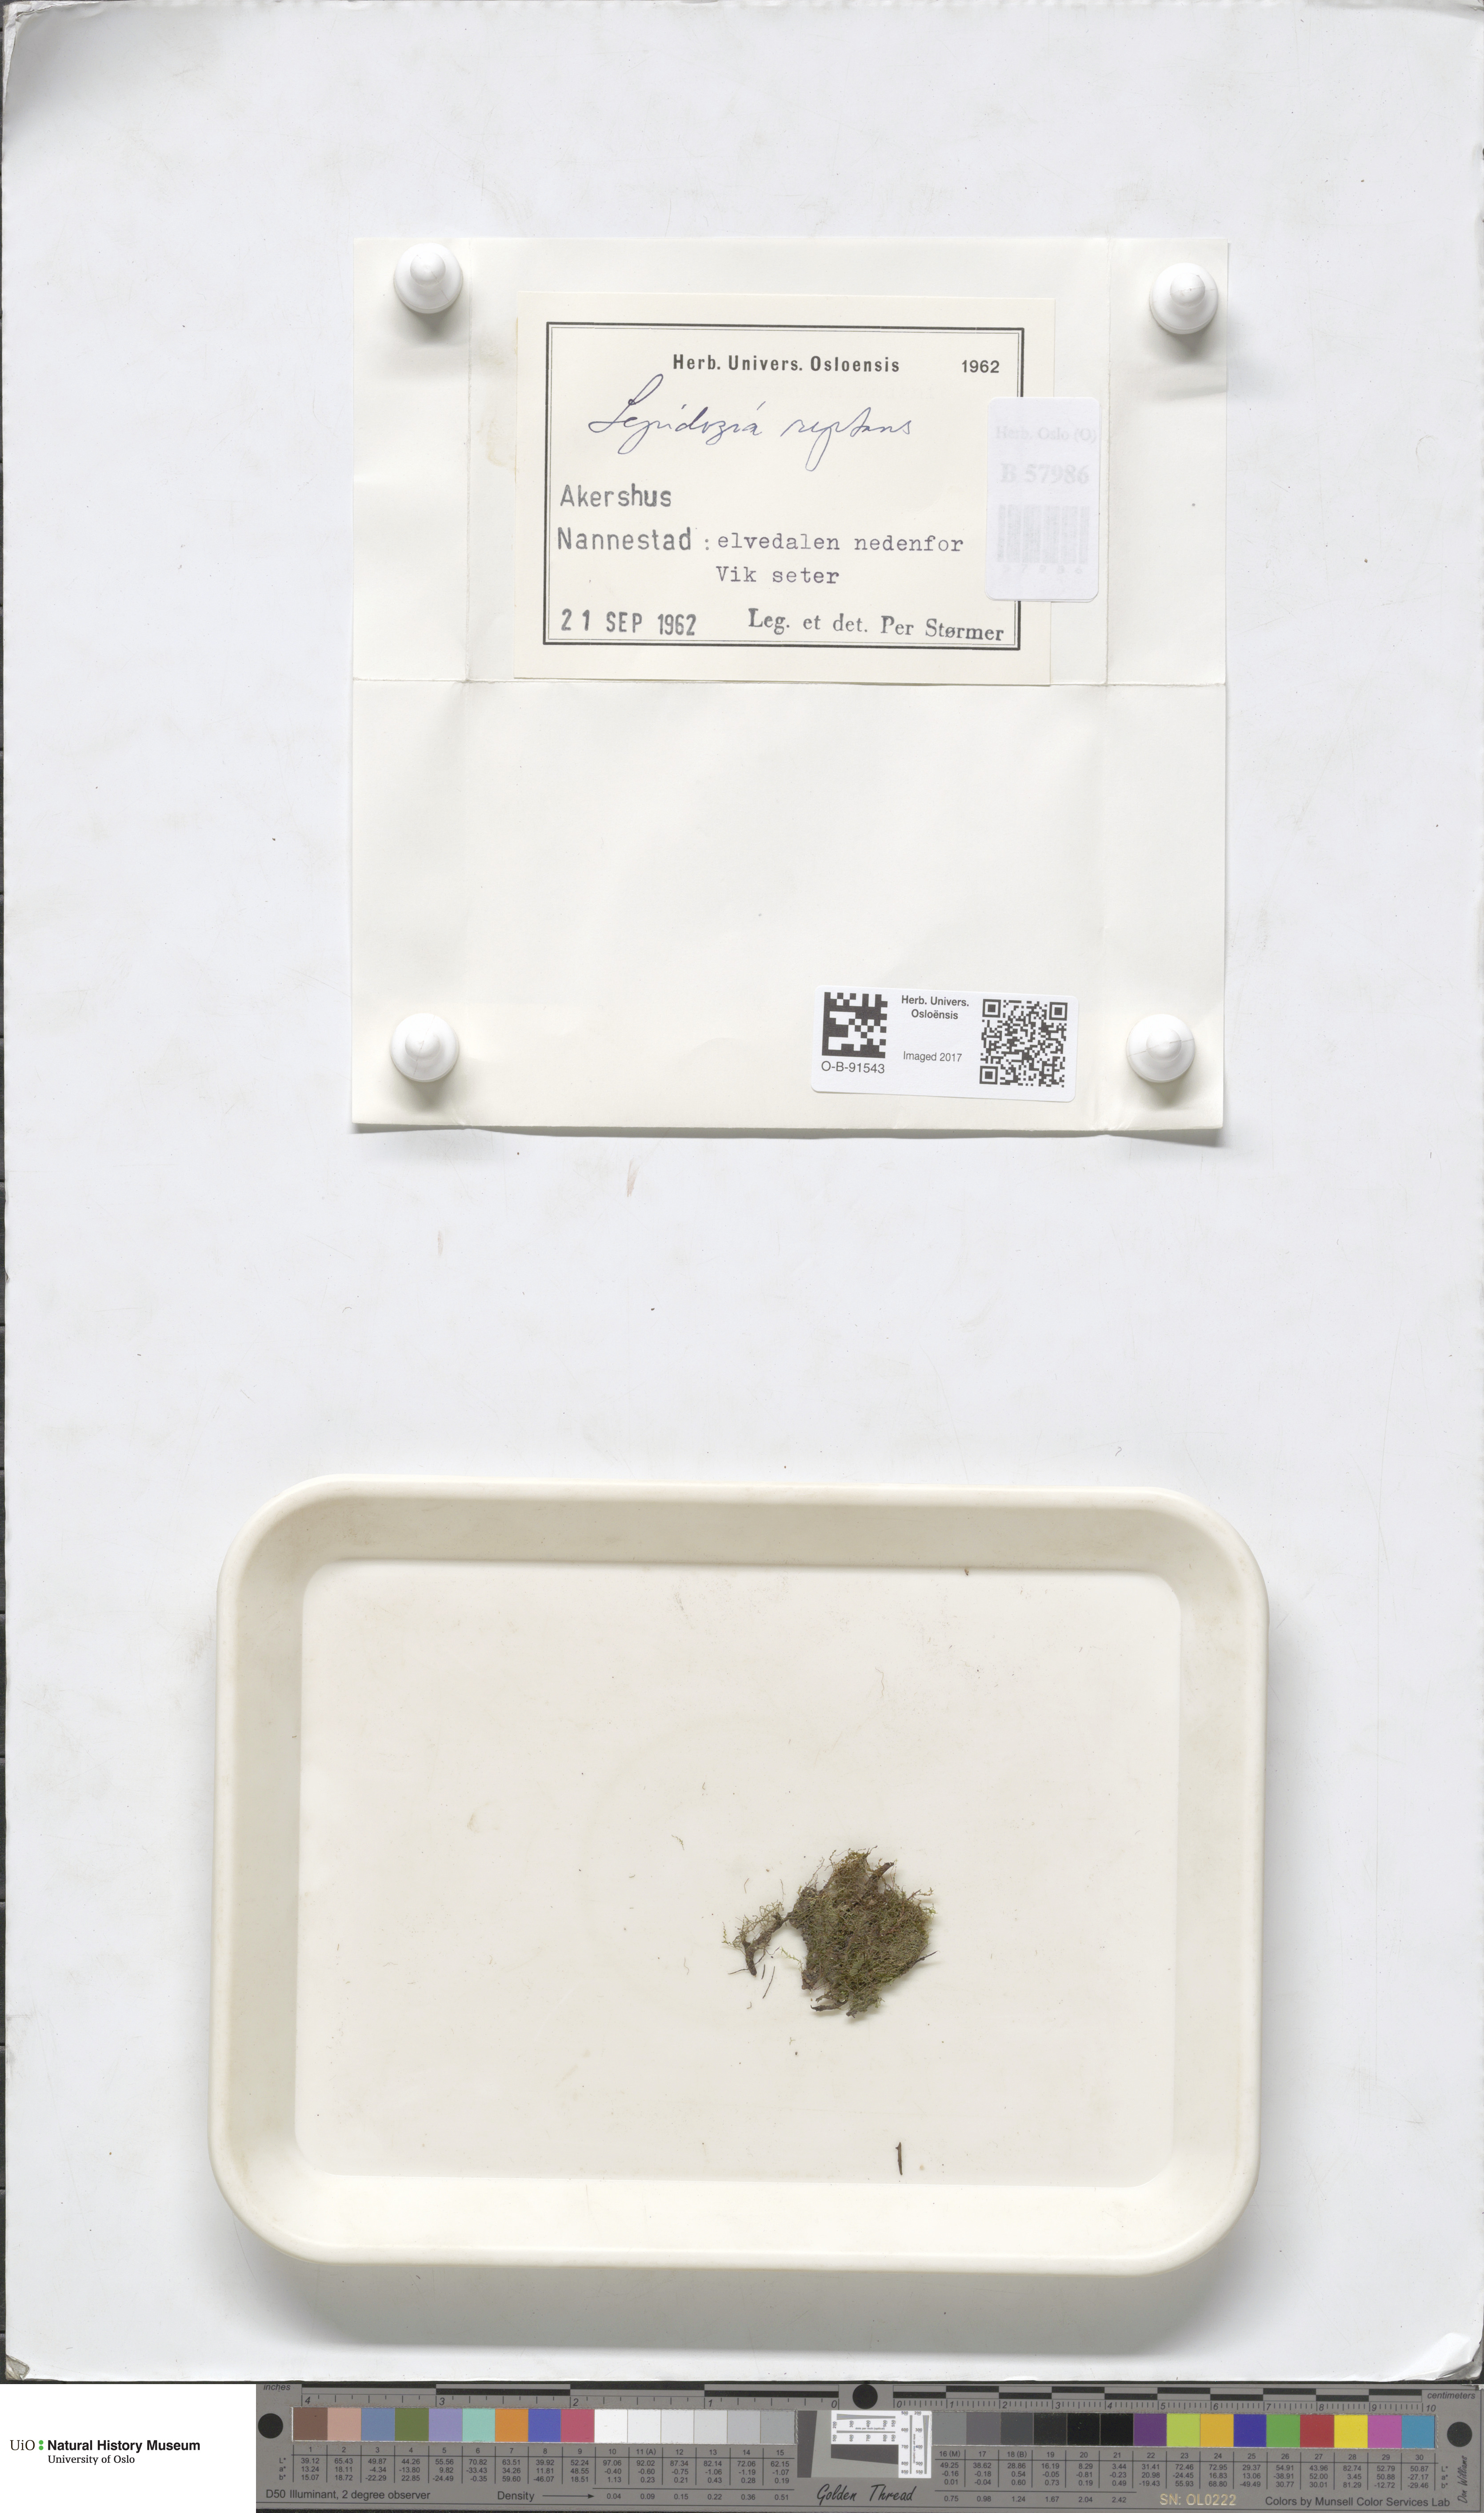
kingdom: Plantae
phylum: Marchantiophyta
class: Jungermanniopsida
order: Jungermanniales
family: Lepidoziaceae
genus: Lepidozia
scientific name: Lepidozia reptans
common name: Creeping fingerwort
